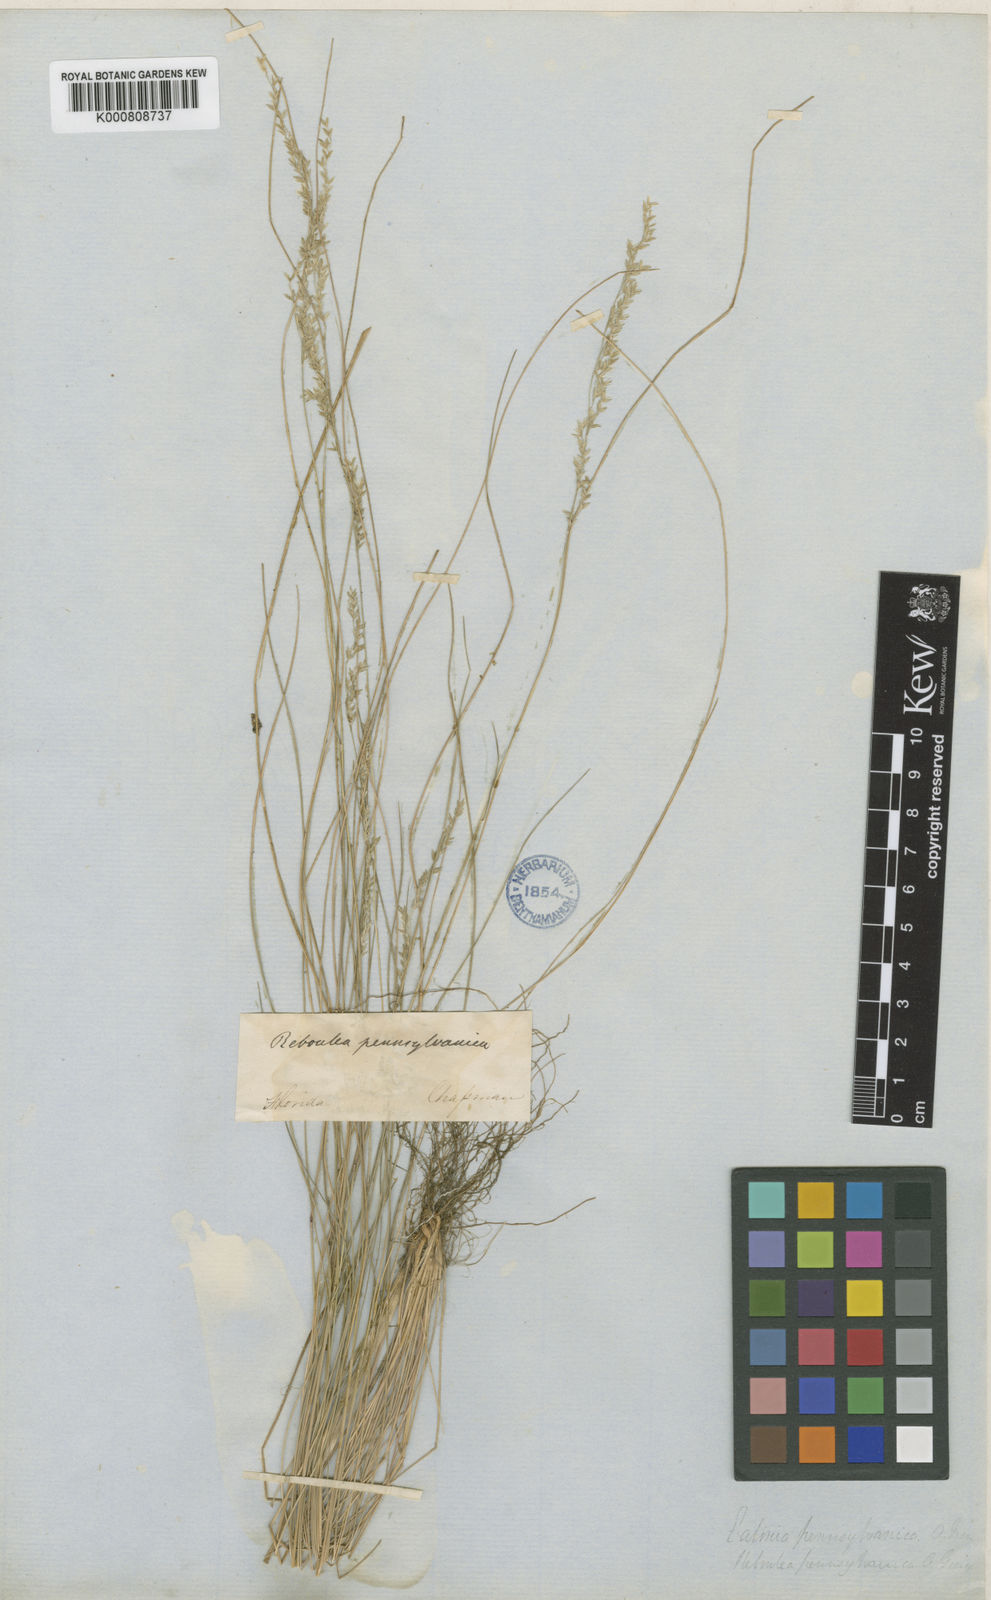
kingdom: Plantae
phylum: Tracheophyta
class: Liliopsida
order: Poales
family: Poaceae
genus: Sphenopholis
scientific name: Sphenopholis filiformis
